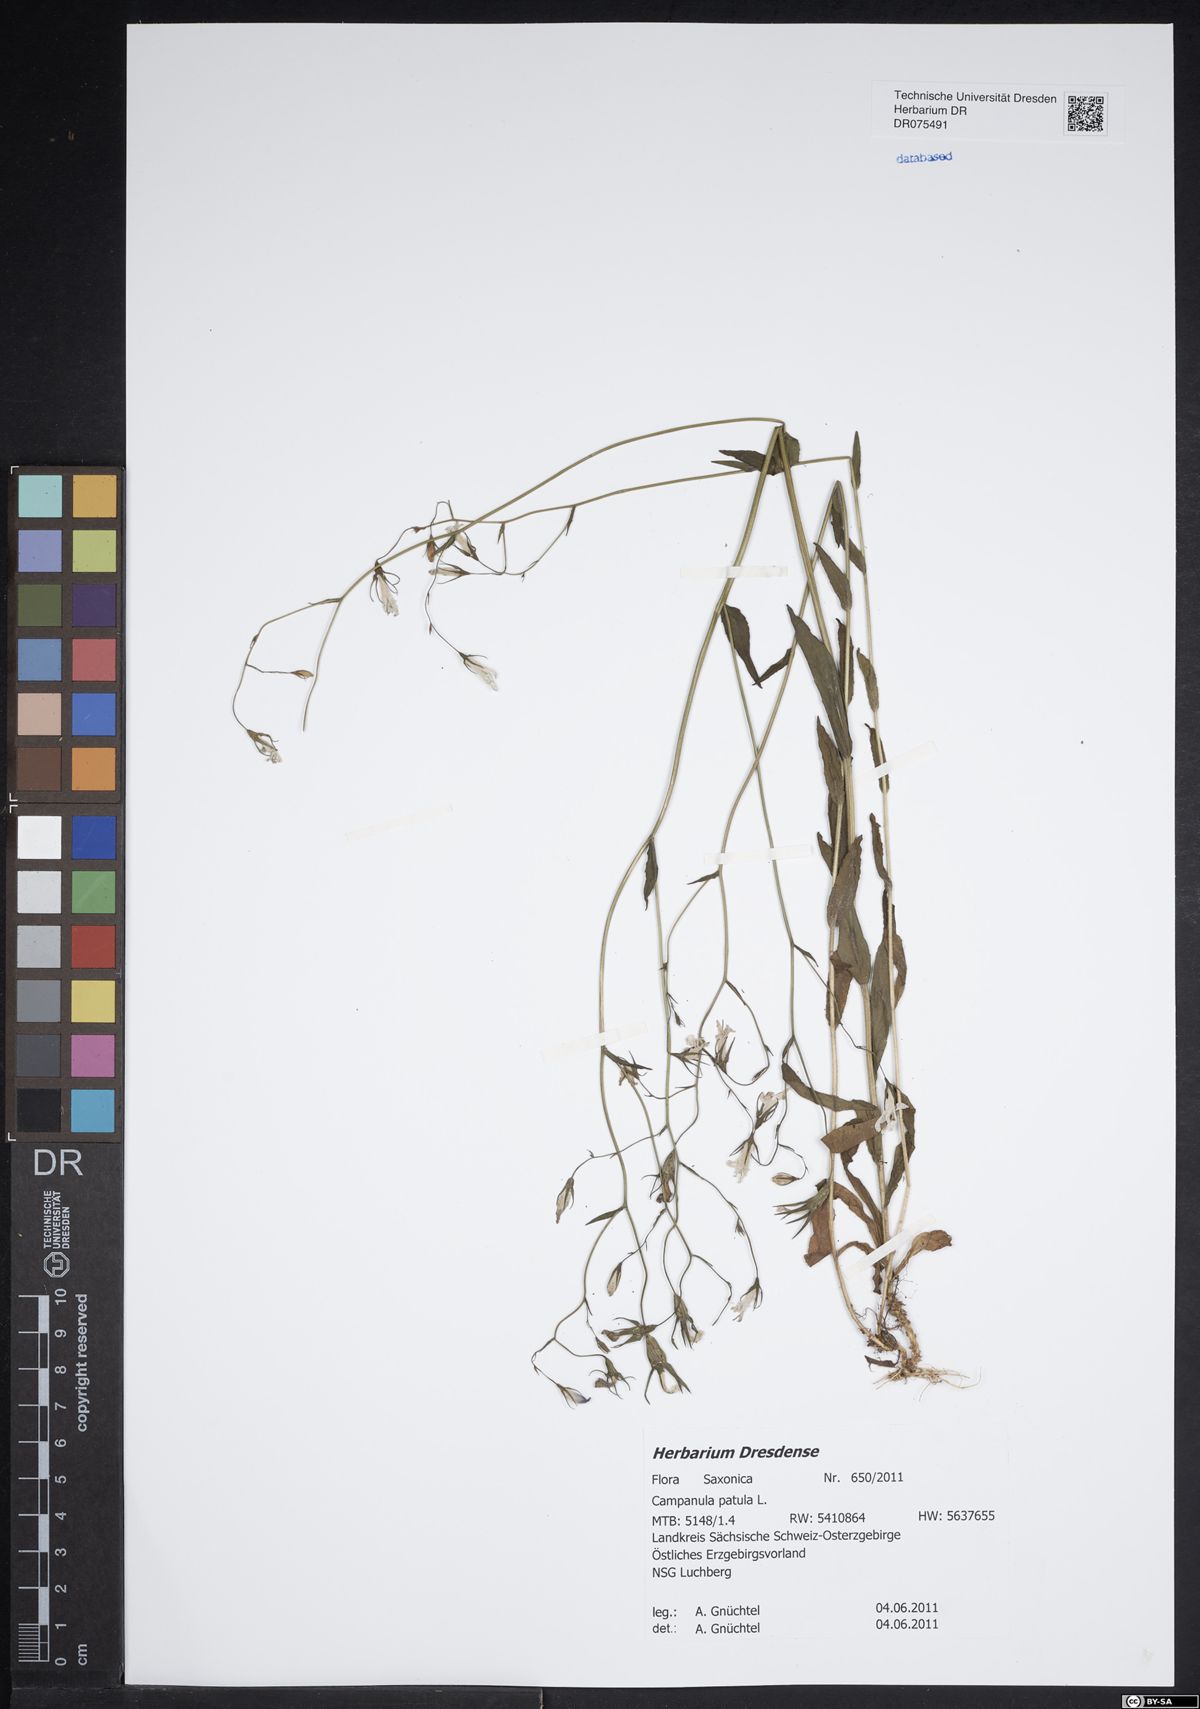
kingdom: Plantae
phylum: Tracheophyta
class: Magnoliopsida
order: Asterales
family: Campanulaceae
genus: Campanula
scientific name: Campanula patula
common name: Spreading bellflower
